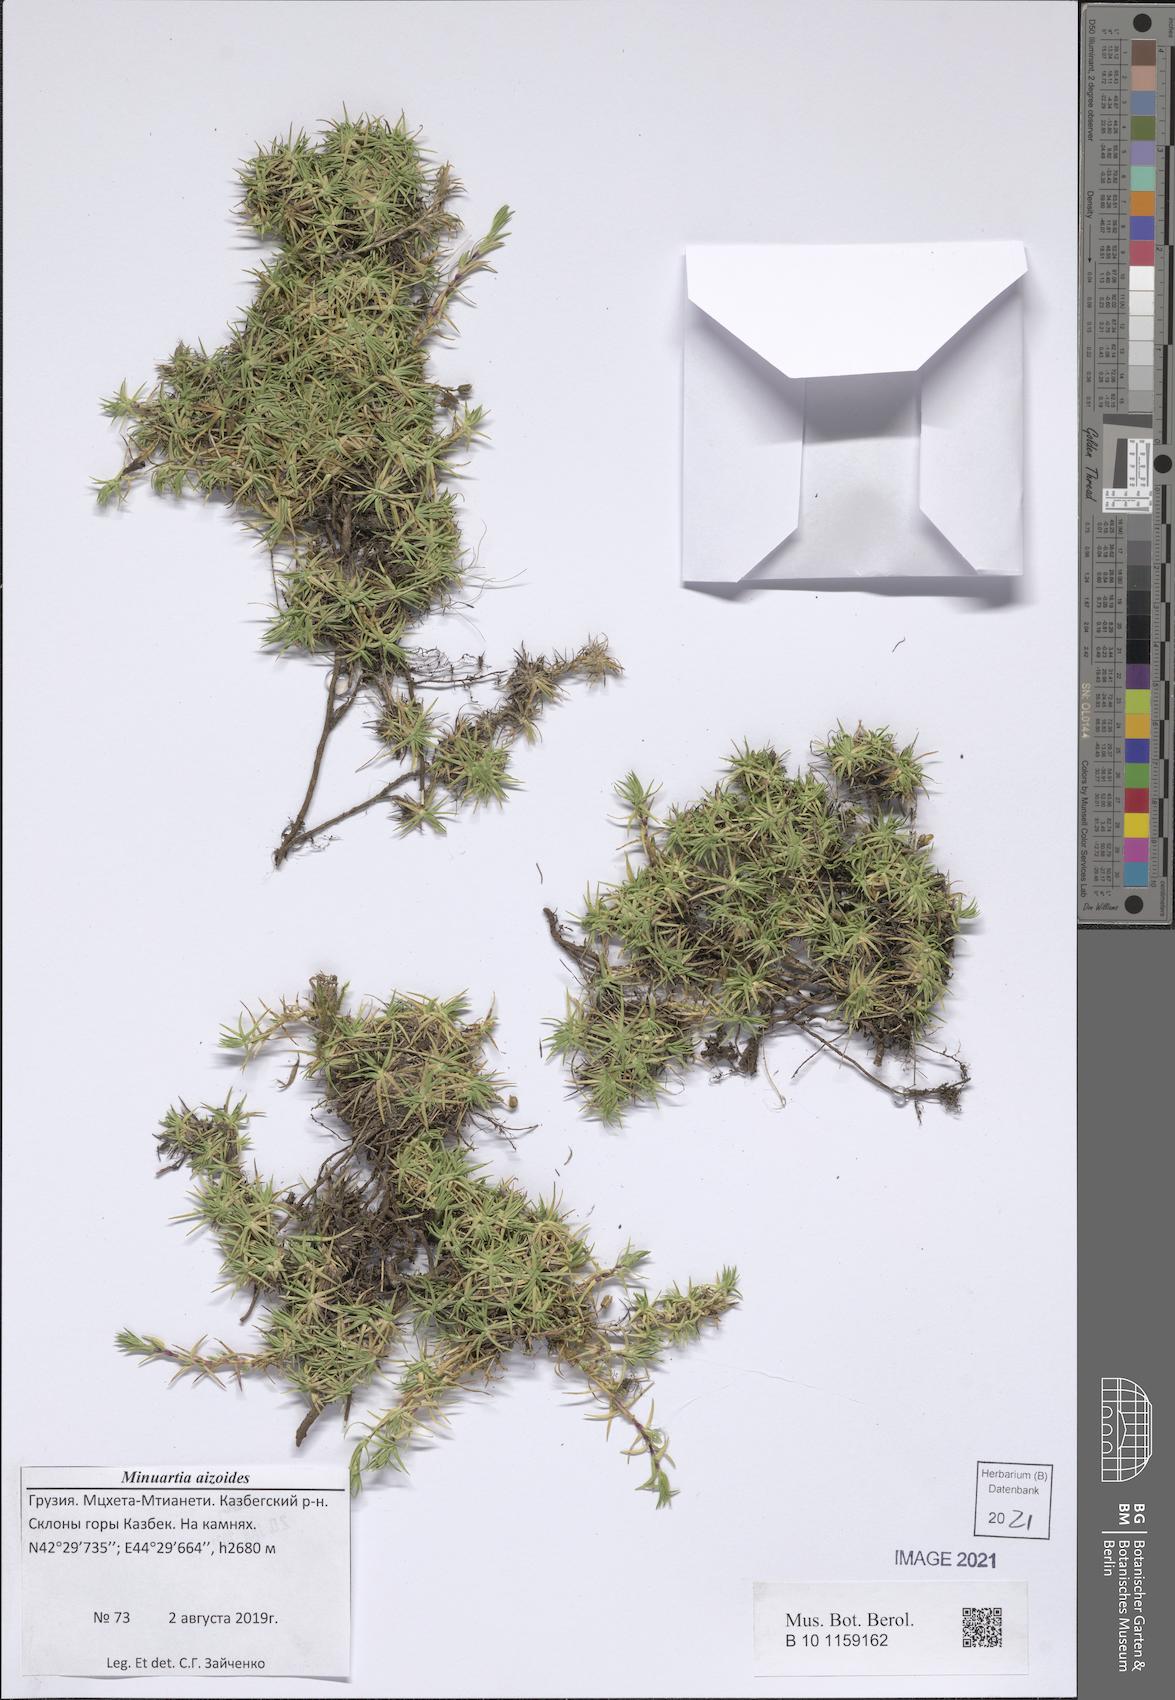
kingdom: Plantae
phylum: Tracheophyta
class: Magnoliopsida
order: Caryophyllales
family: Caryophyllaceae
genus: Pseudocherleria
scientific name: Pseudocherleria aizoides
